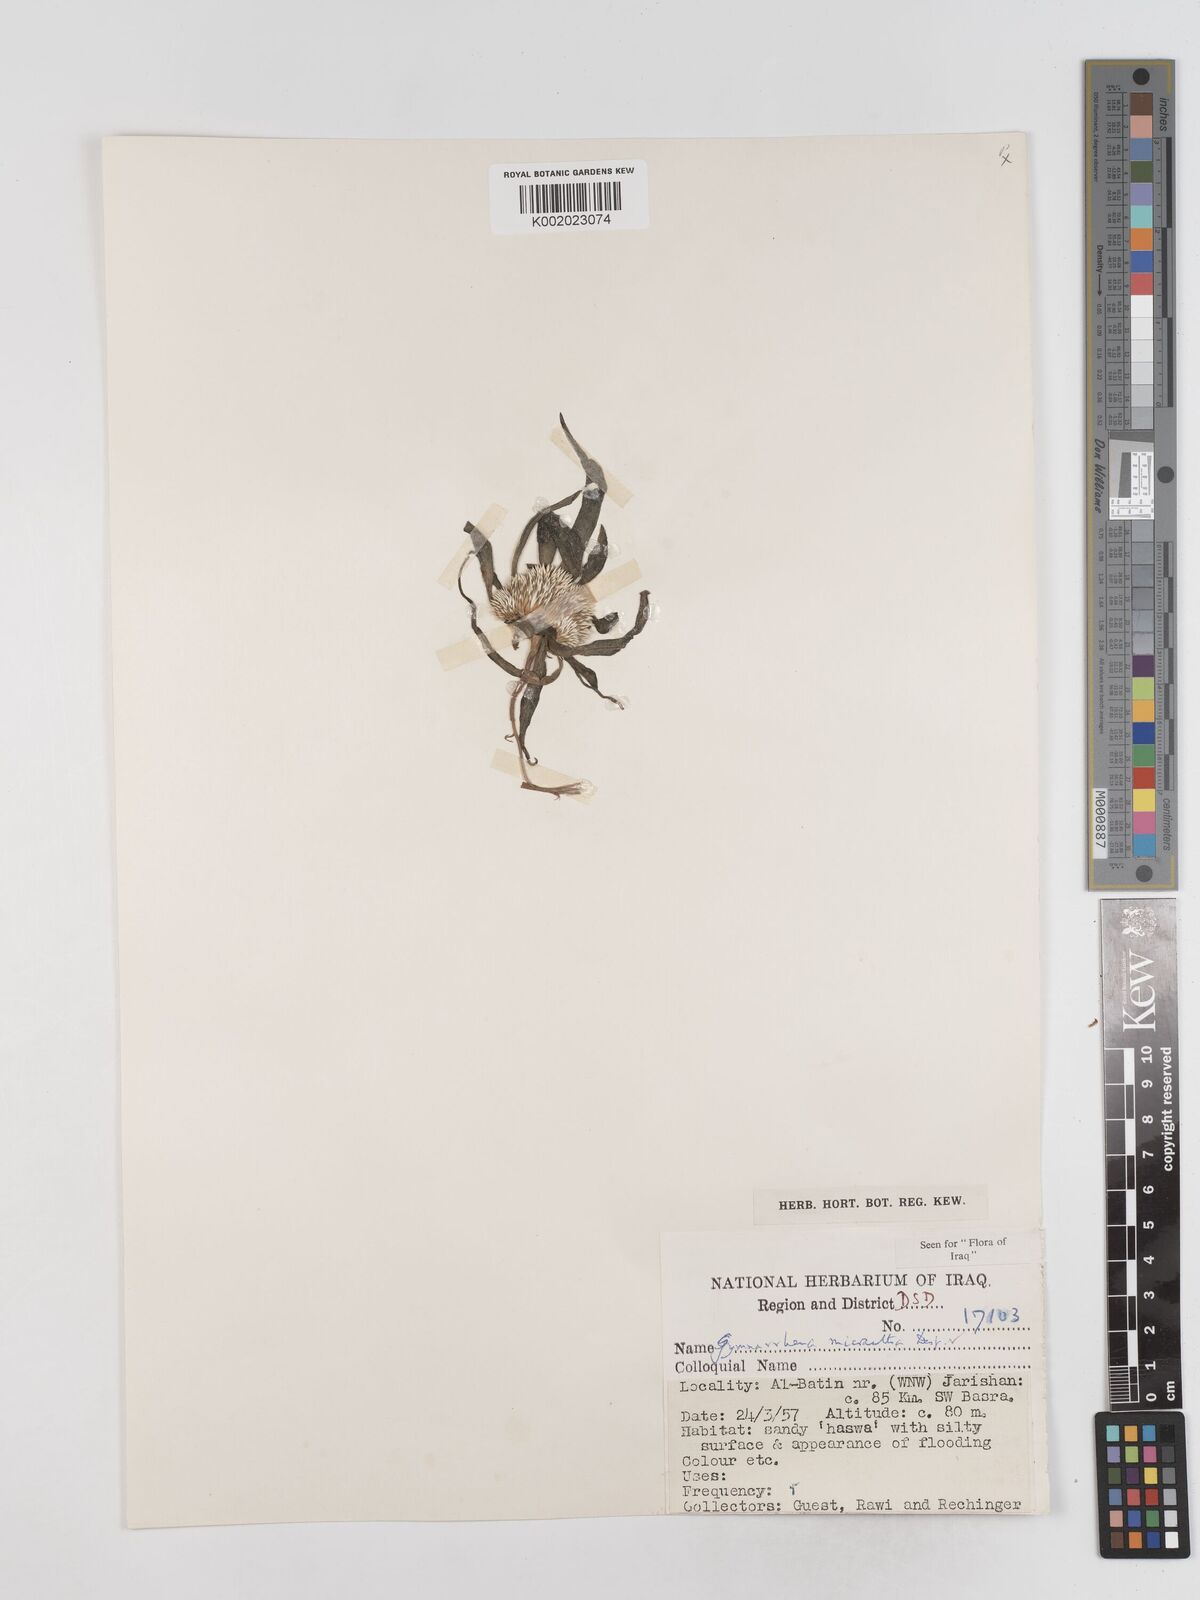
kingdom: Plantae
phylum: Tracheophyta
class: Magnoliopsida
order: Asterales
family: Asteraceae
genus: Gymnarrhena
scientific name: Gymnarrhena micrantha
